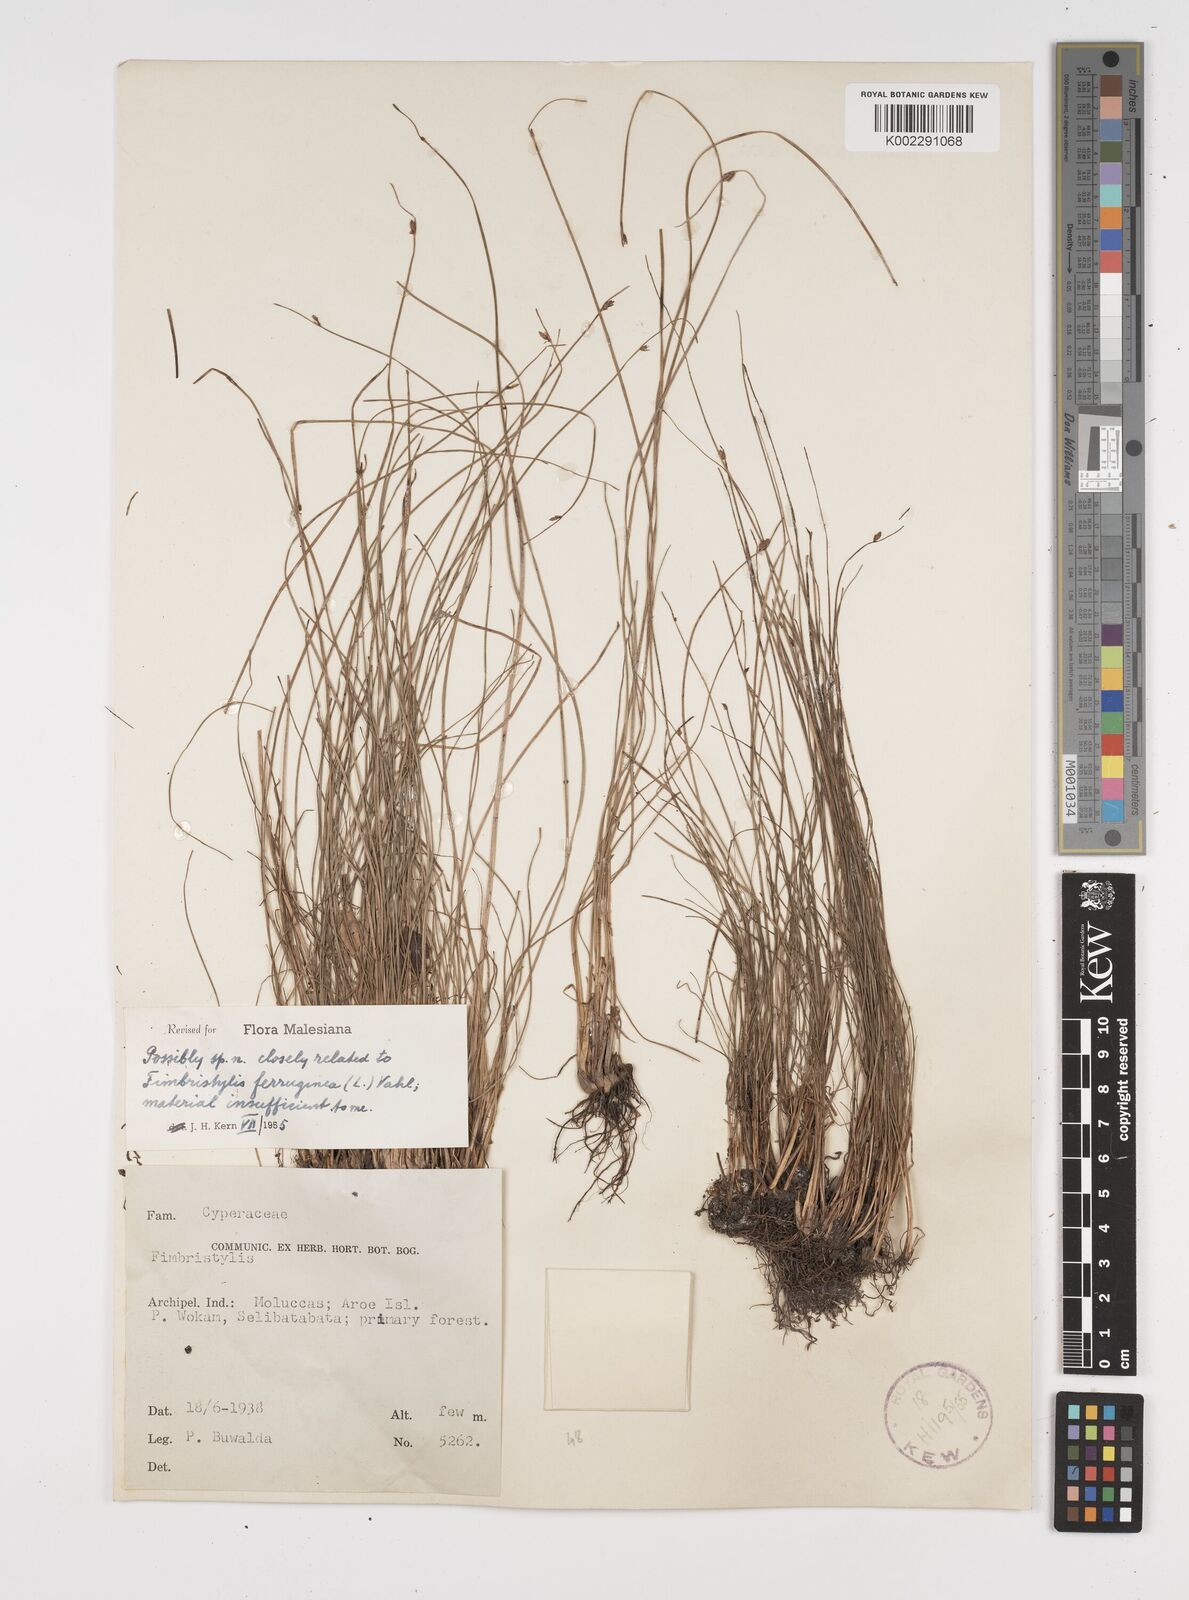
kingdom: Plantae
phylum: Tracheophyta
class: Liliopsida
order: Poales
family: Cyperaceae
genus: Fimbristylis
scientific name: Fimbristylis ferruginea
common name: West indian fimbry
